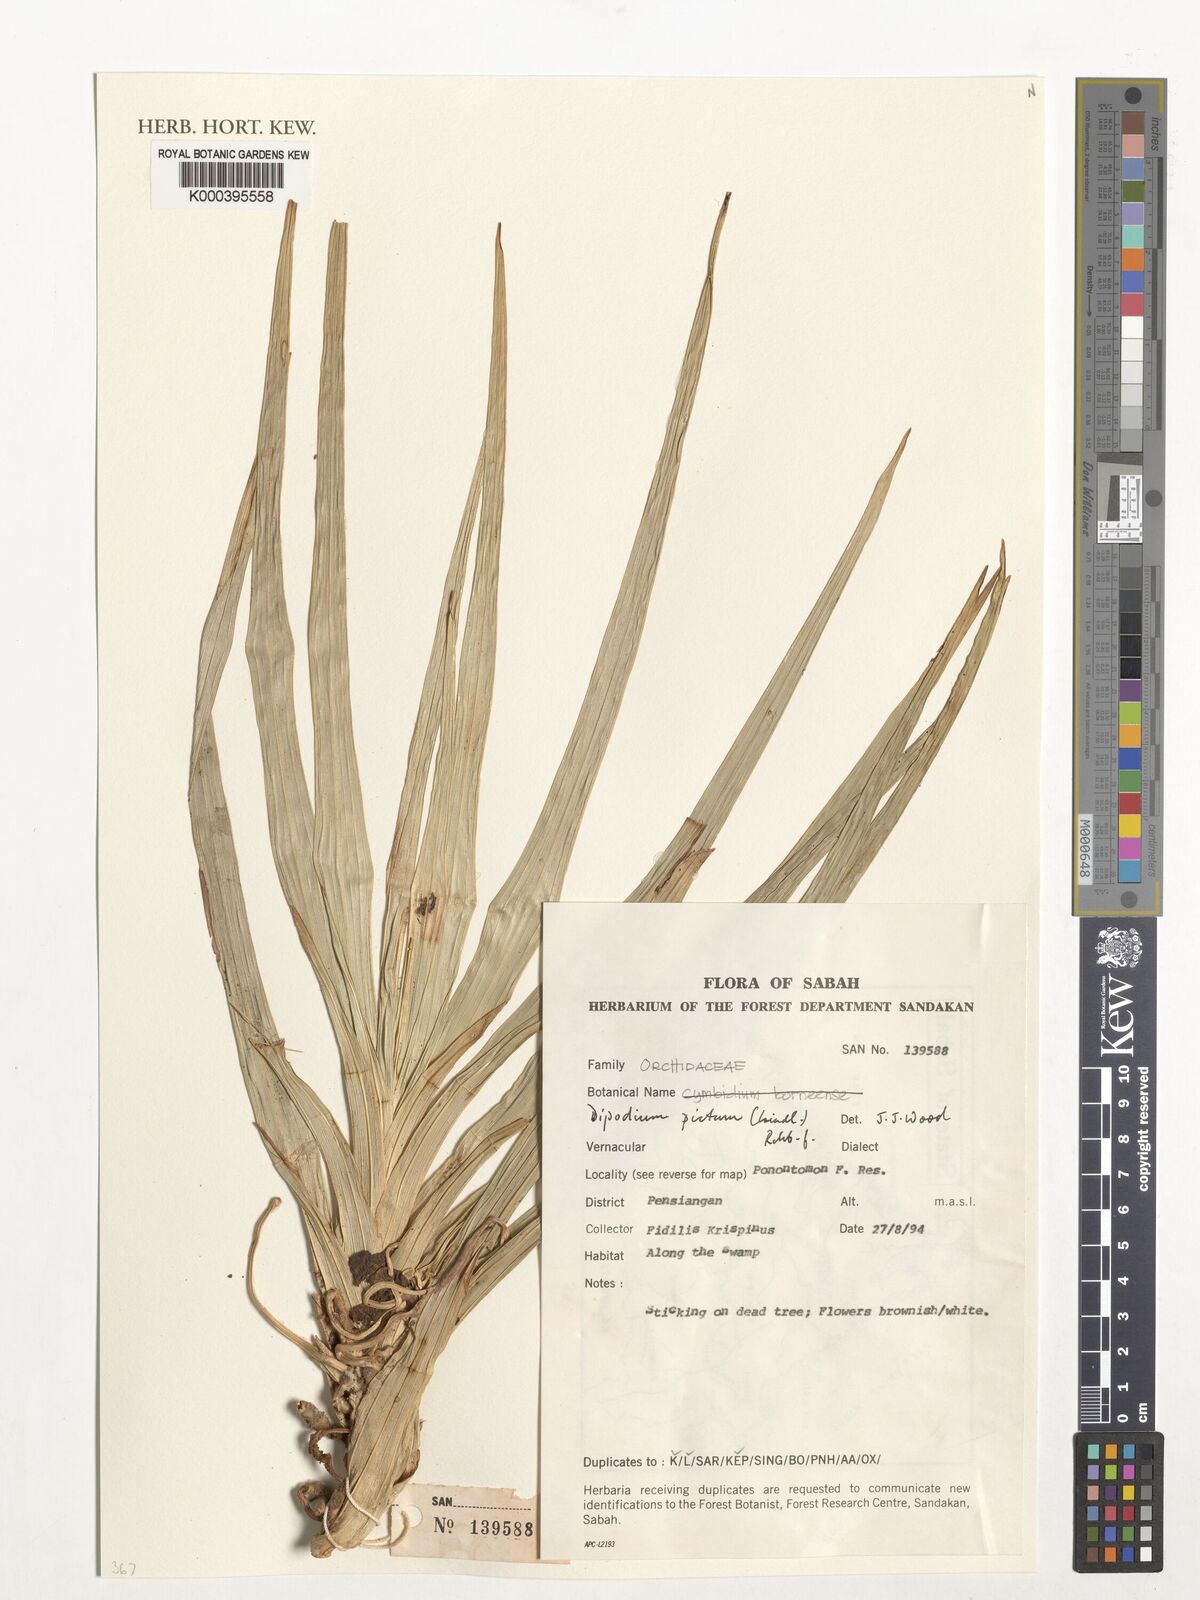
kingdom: Plantae
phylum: Tracheophyta
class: Liliopsida
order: Asparagales
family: Orchidaceae
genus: Dipodium
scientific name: Dipodium pictum
